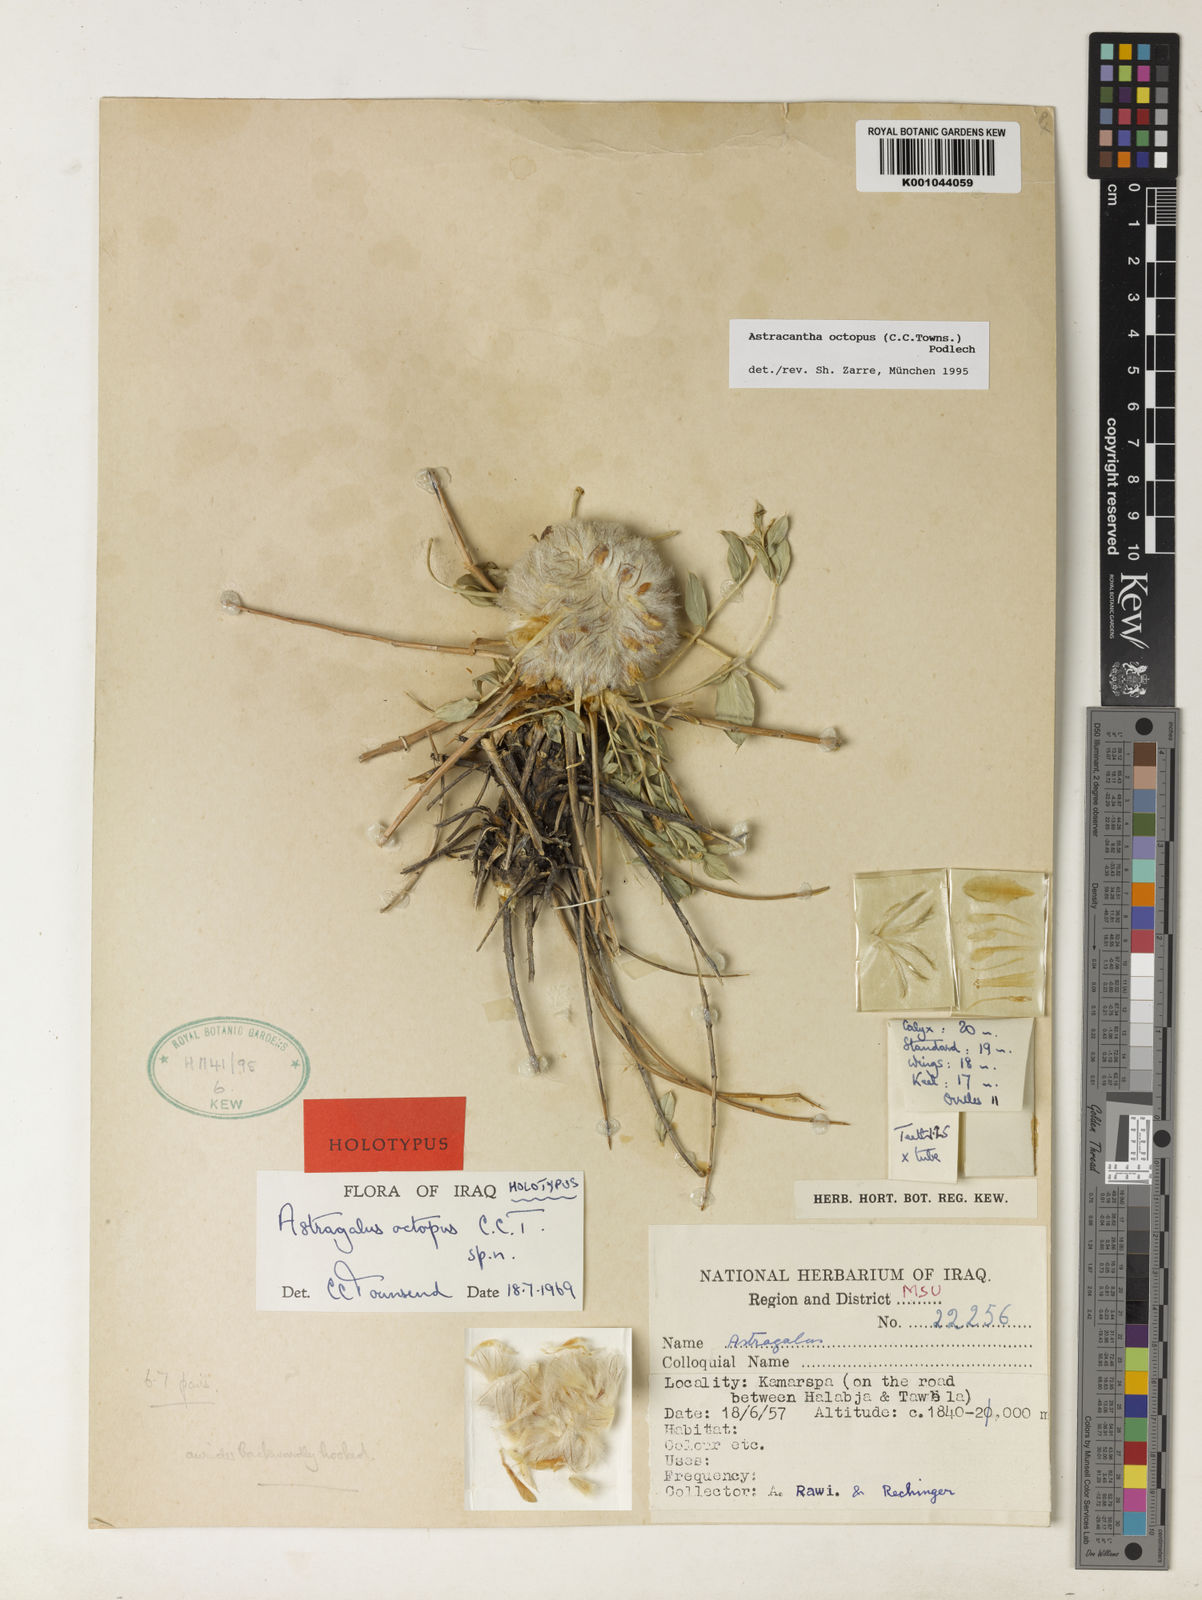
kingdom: Plantae
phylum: Tracheophyta
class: Magnoliopsida
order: Fabales
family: Fabaceae
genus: Astragalus
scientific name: Astragalus octopus
